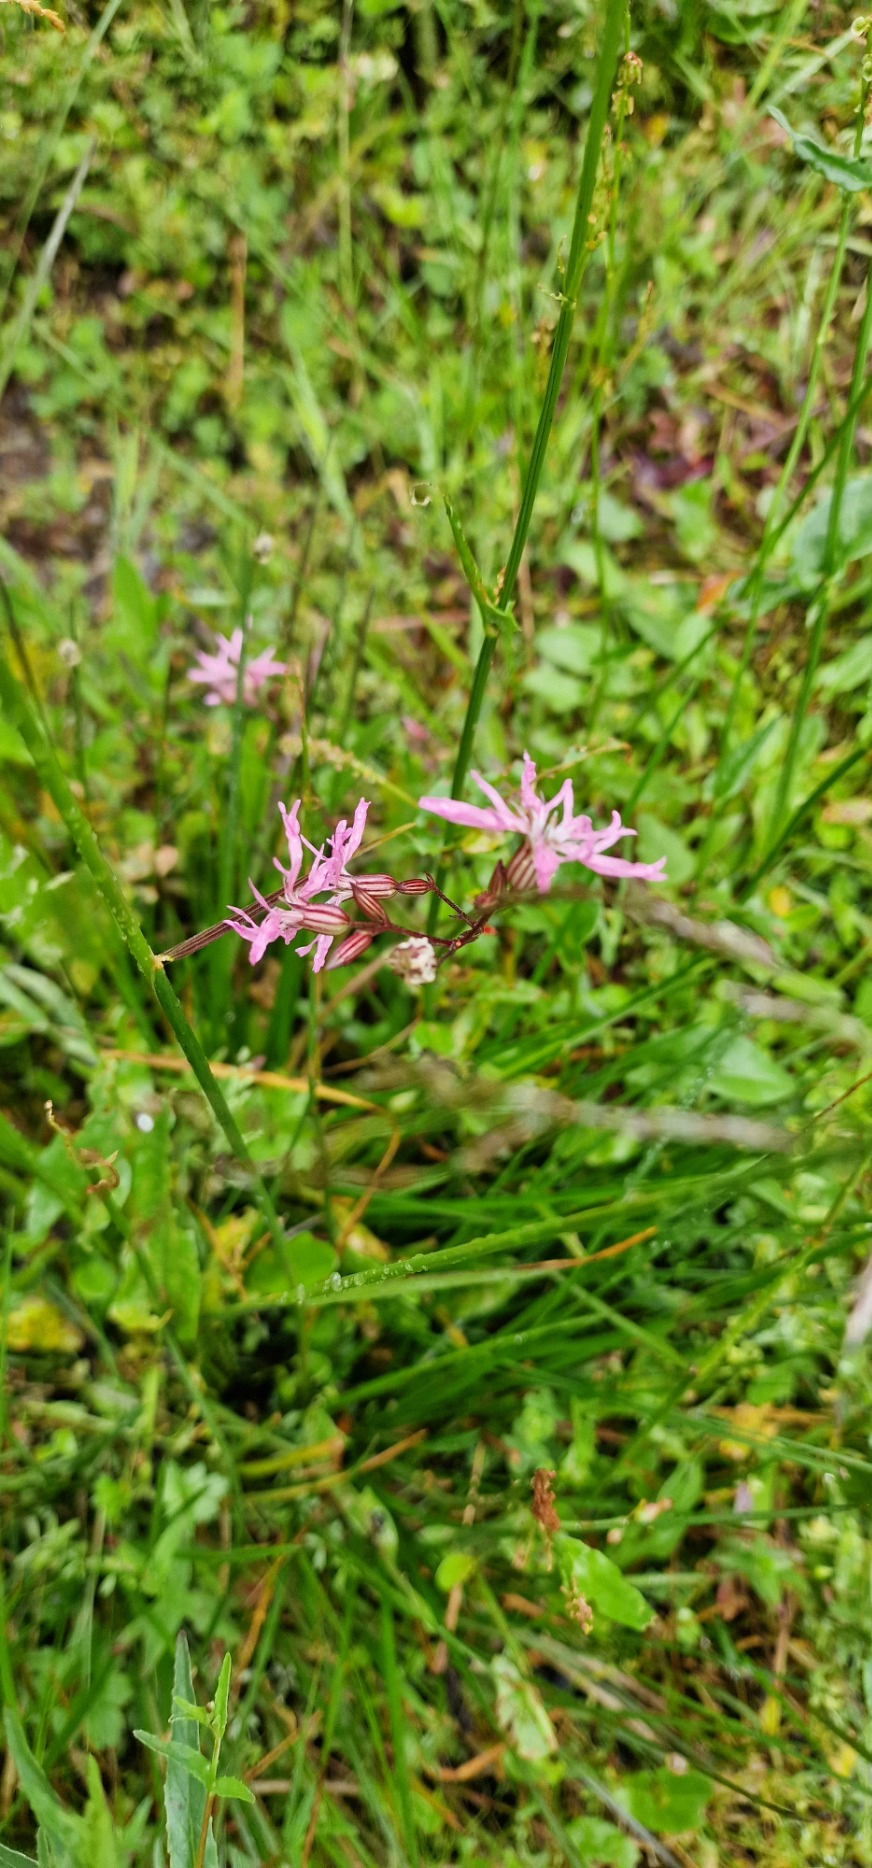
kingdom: Plantae
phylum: Tracheophyta
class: Magnoliopsida
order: Caryophyllales
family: Caryophyllaceae
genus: Silene
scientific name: Silene flos-cuculi
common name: Trævlekrone
